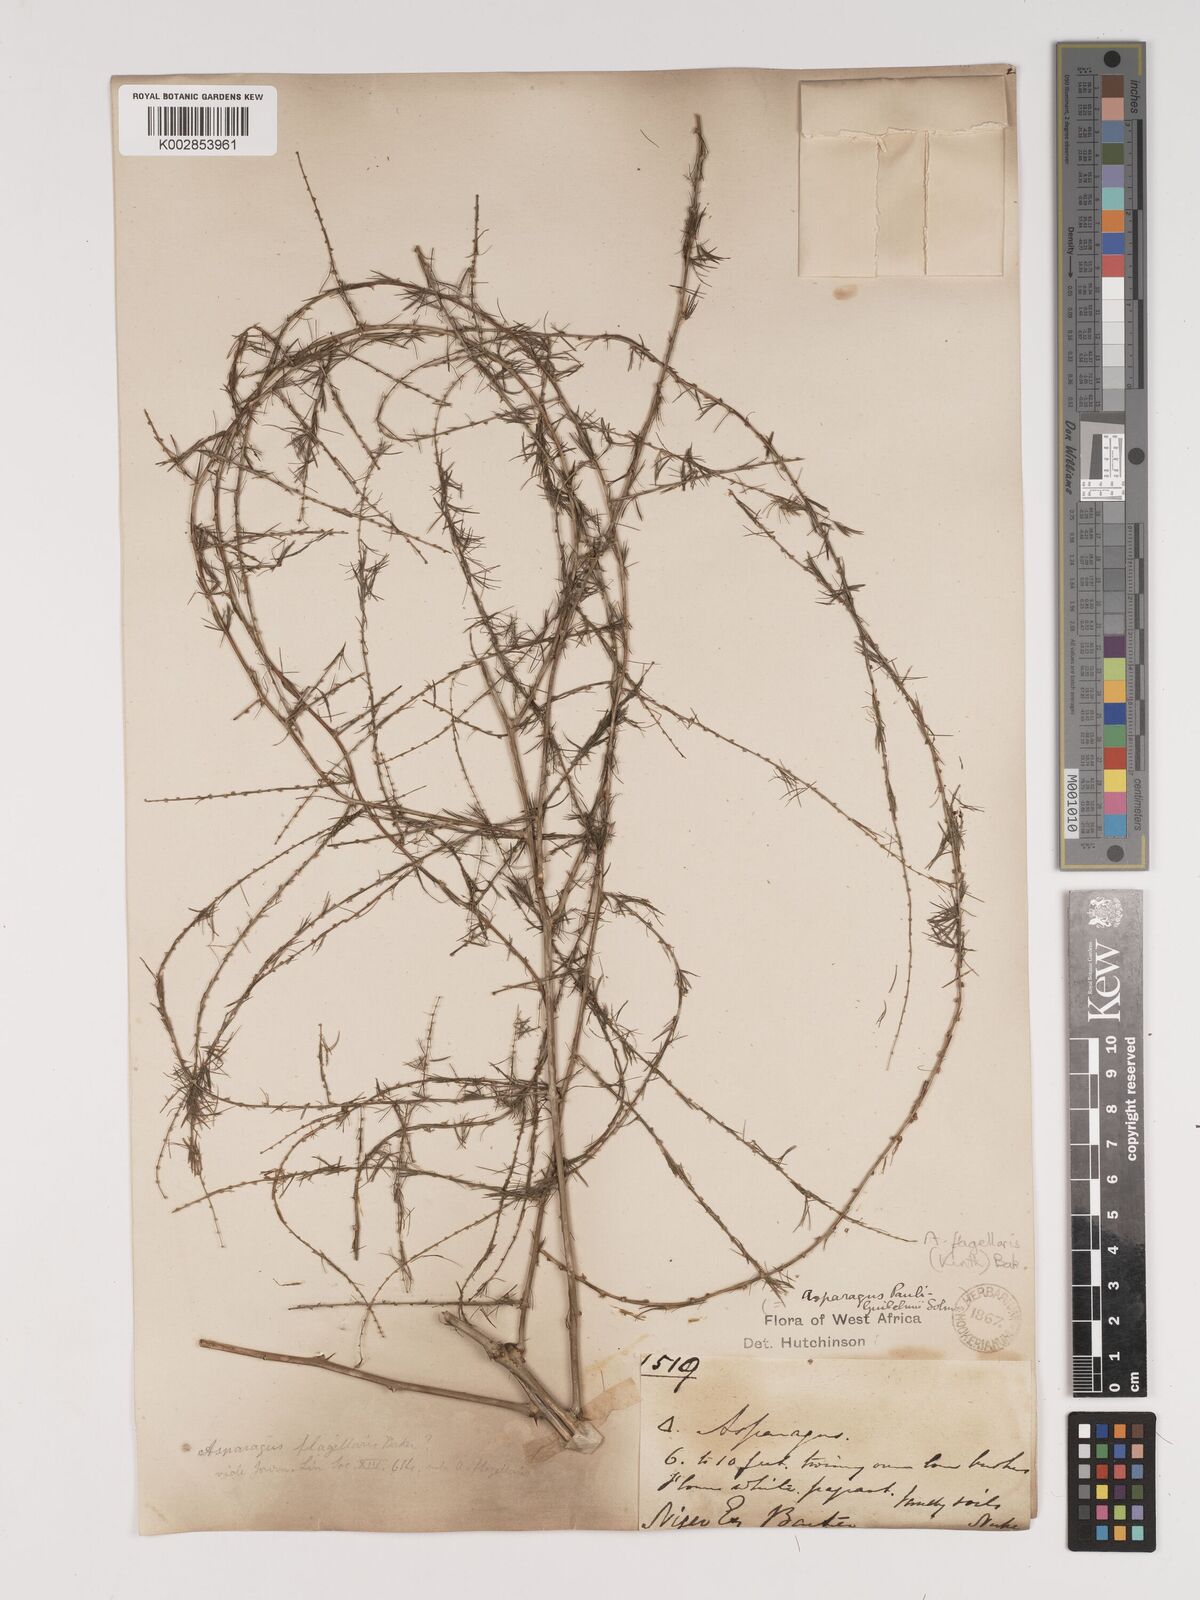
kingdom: Plantae
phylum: Tracheophyta
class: Liliopsida
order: Asparagales
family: Asparagaceae
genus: Asparagus
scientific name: Asparagus flagellaris
